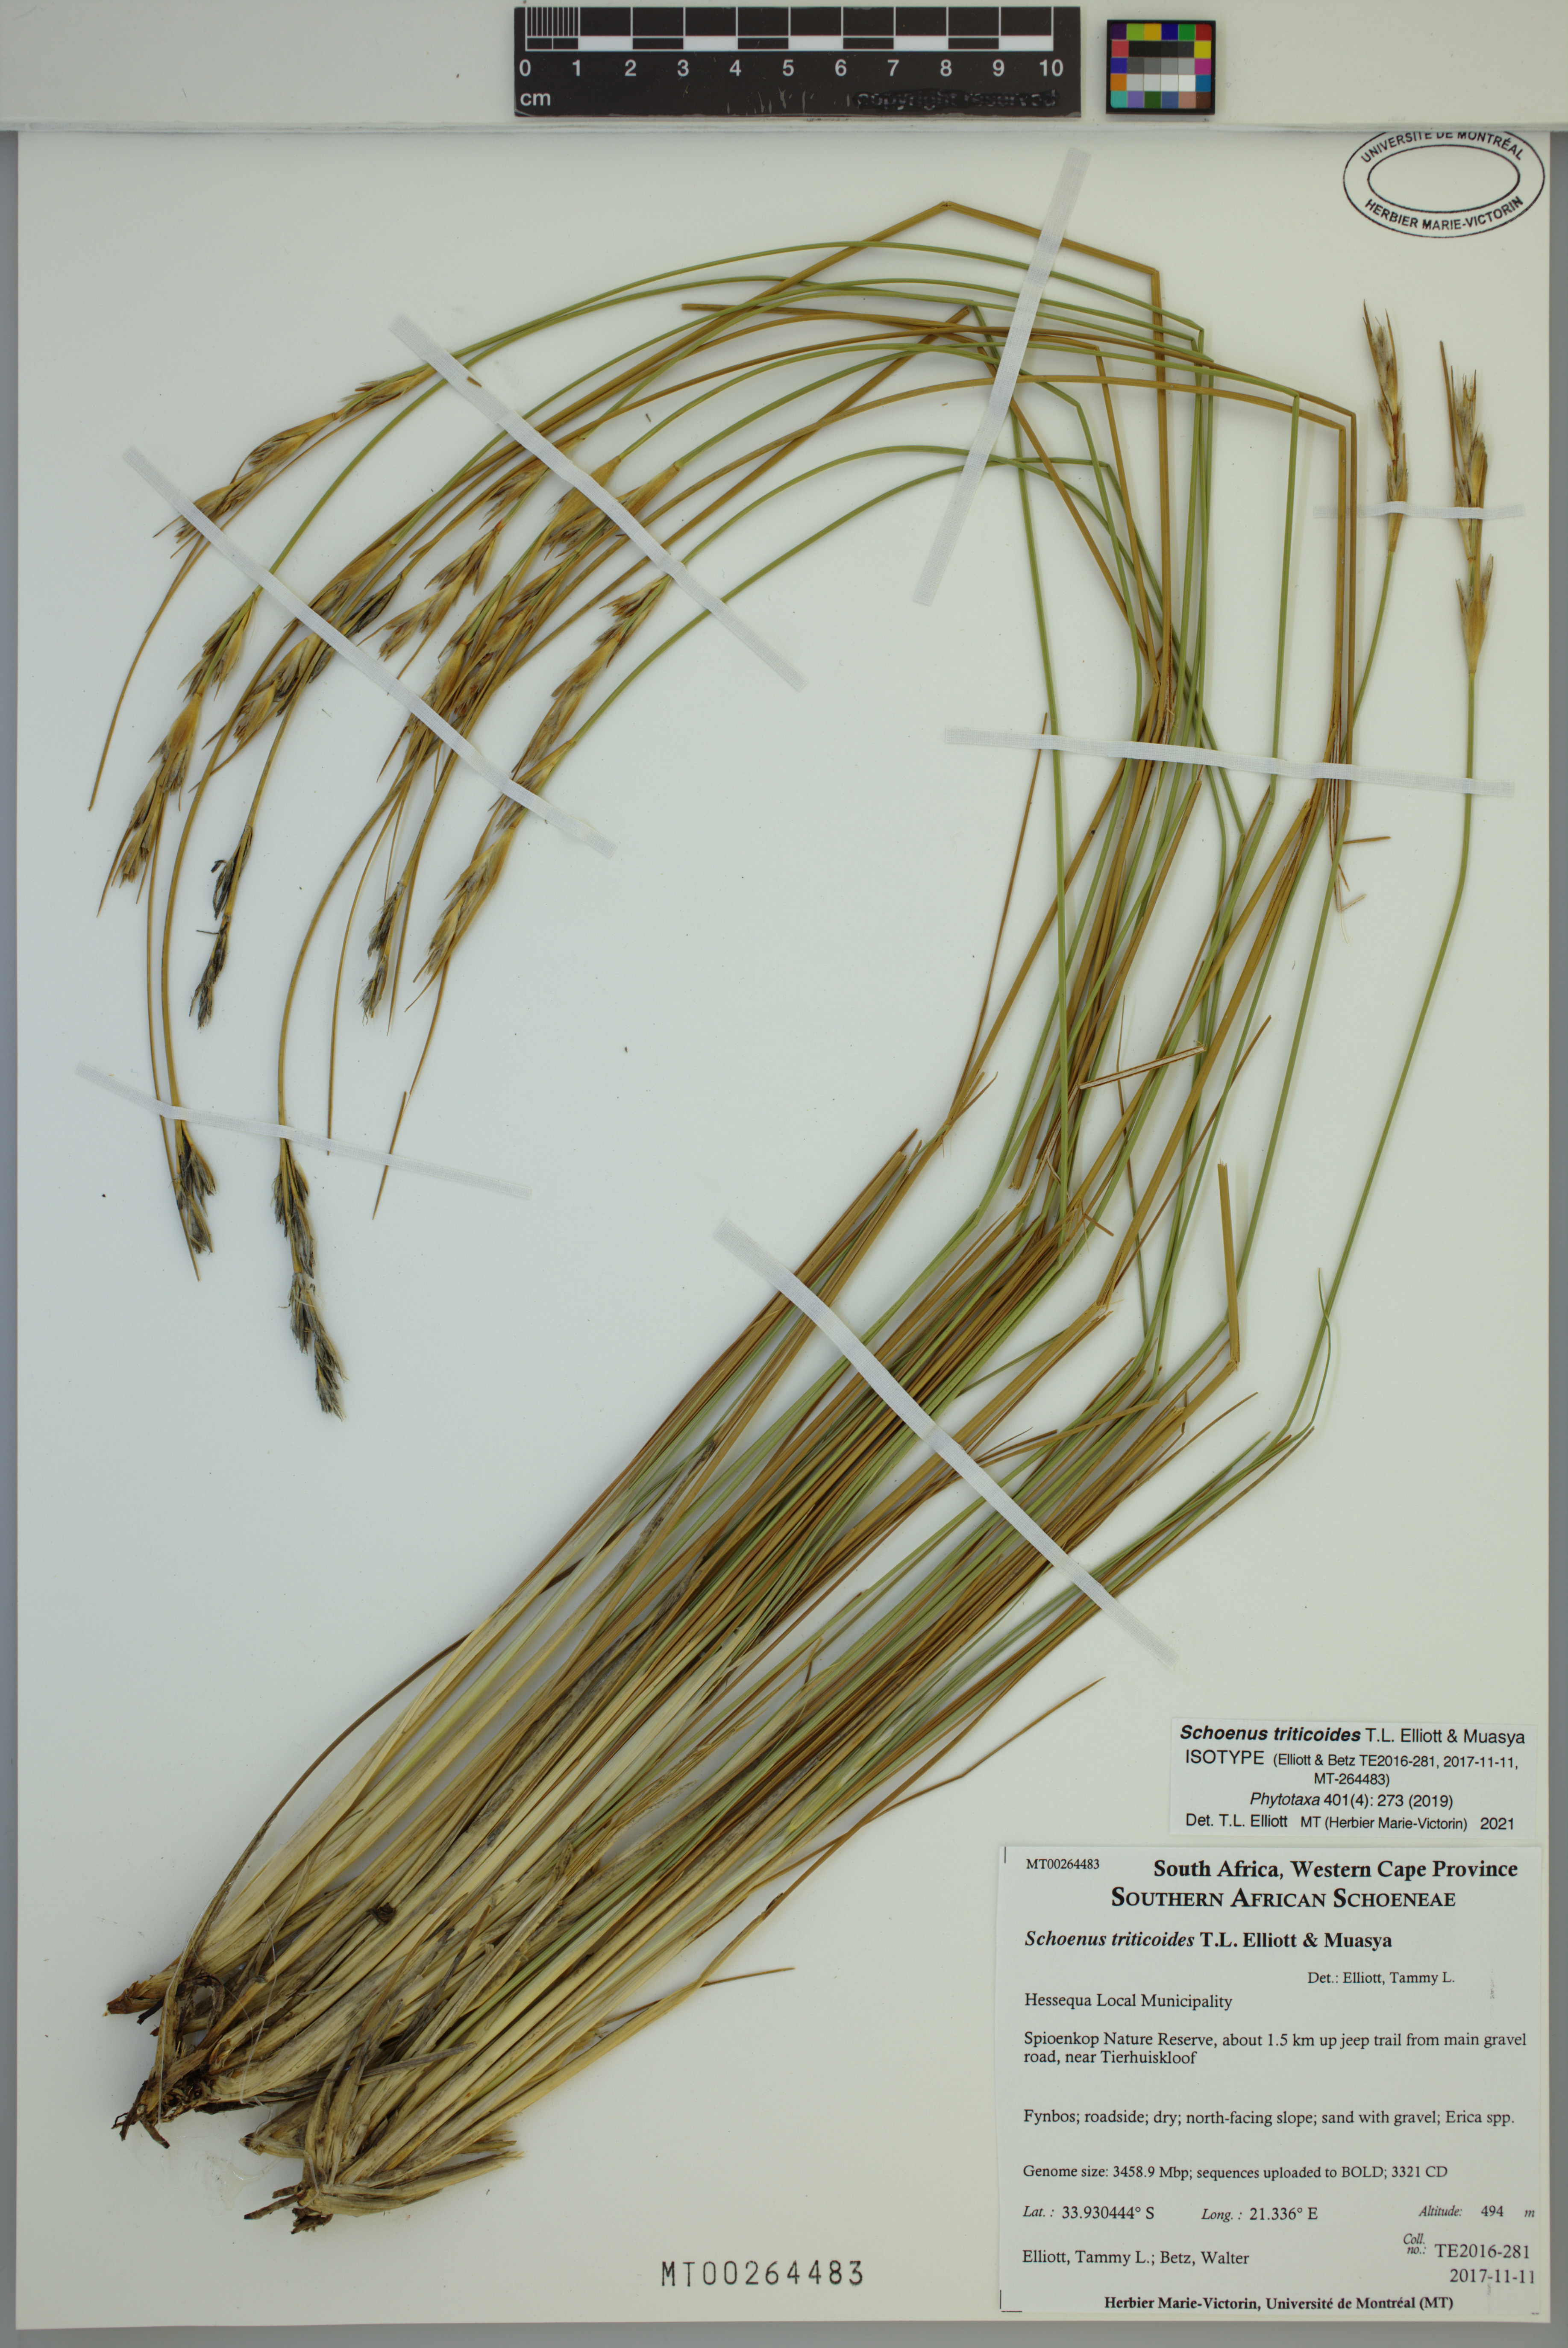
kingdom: Plantae
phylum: Tracheophyta
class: Liliopsida
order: Poales
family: Cyperaceae
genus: Schoenus
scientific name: Schoenus triticoides
